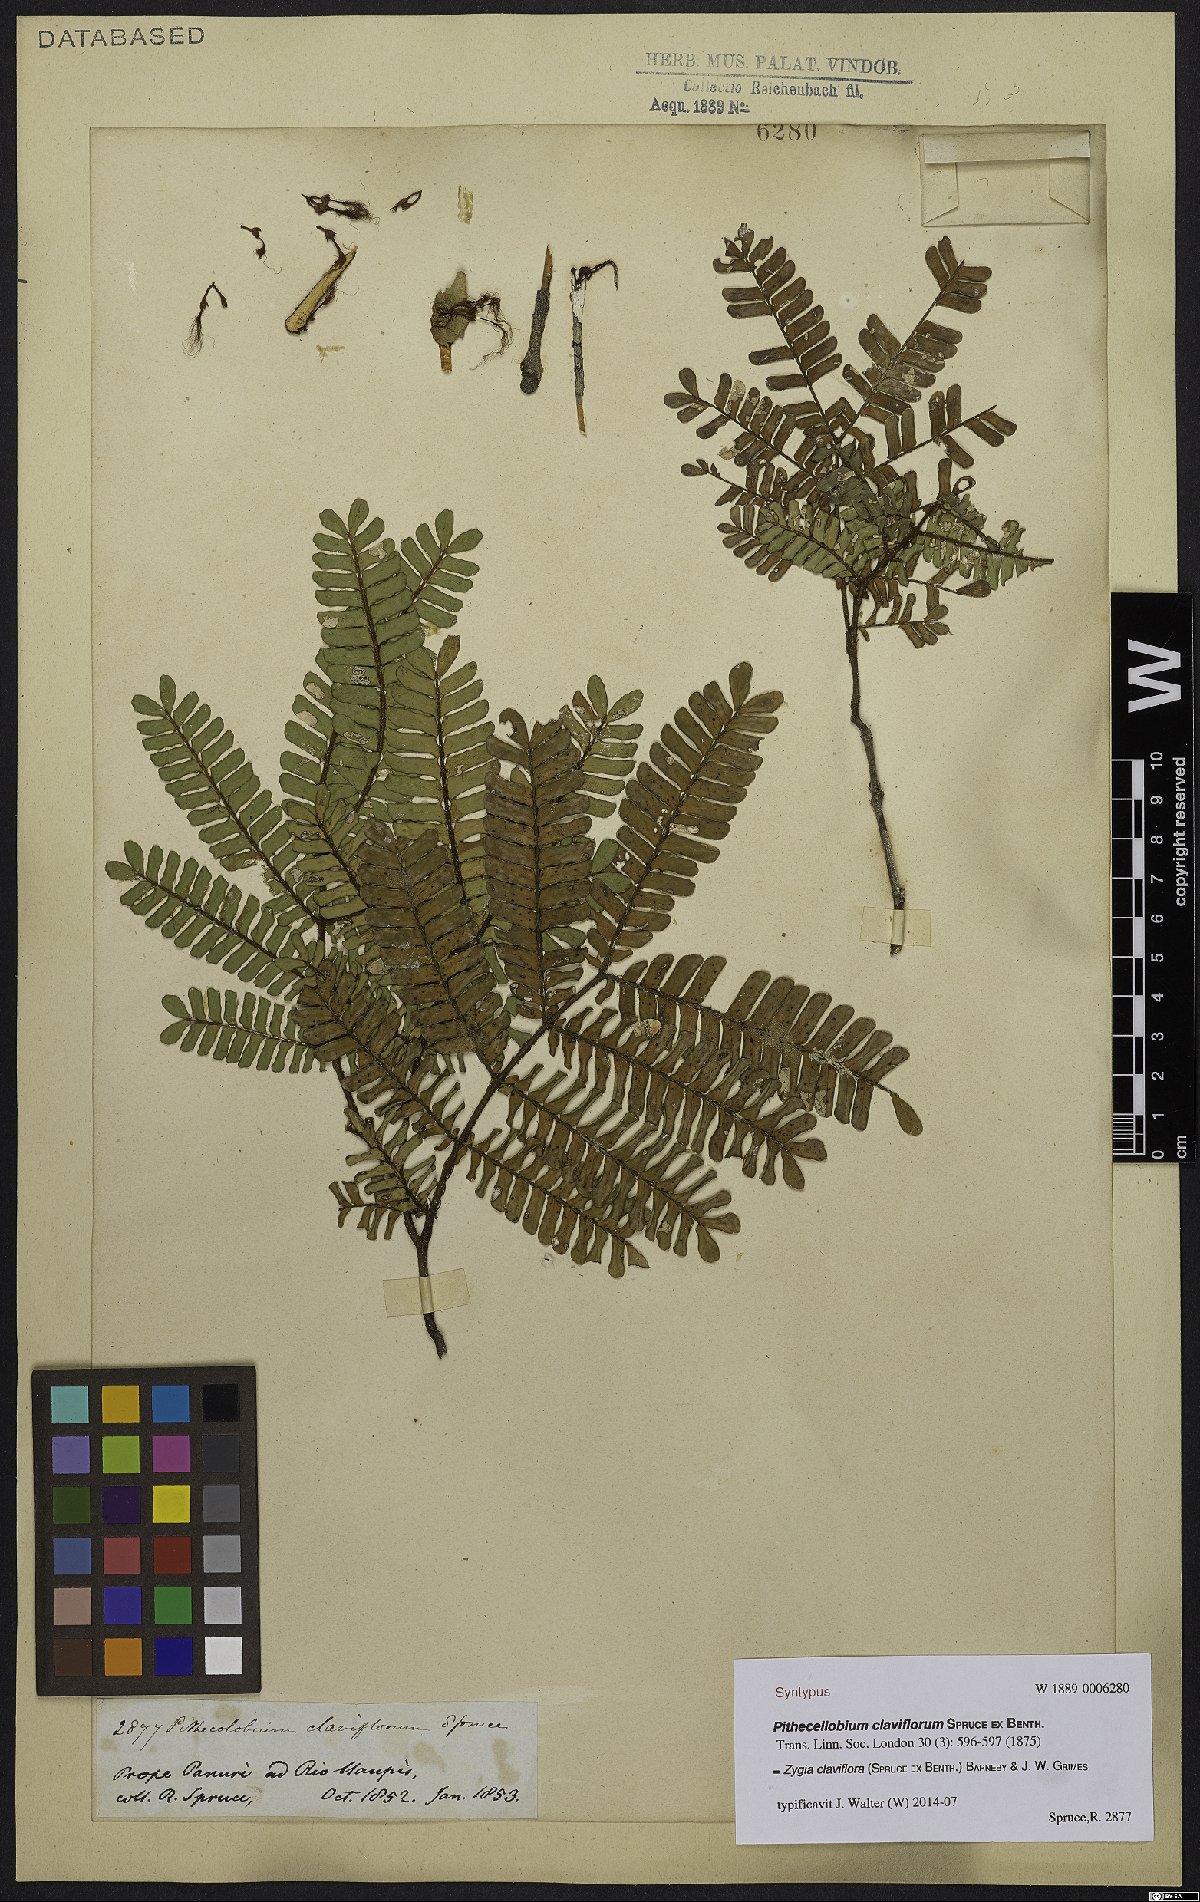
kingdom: Plantae
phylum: Tracheophyta
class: Magnoliopsida
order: Fabales
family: Fabaceae
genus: Zygia
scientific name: Zygia claviflora
